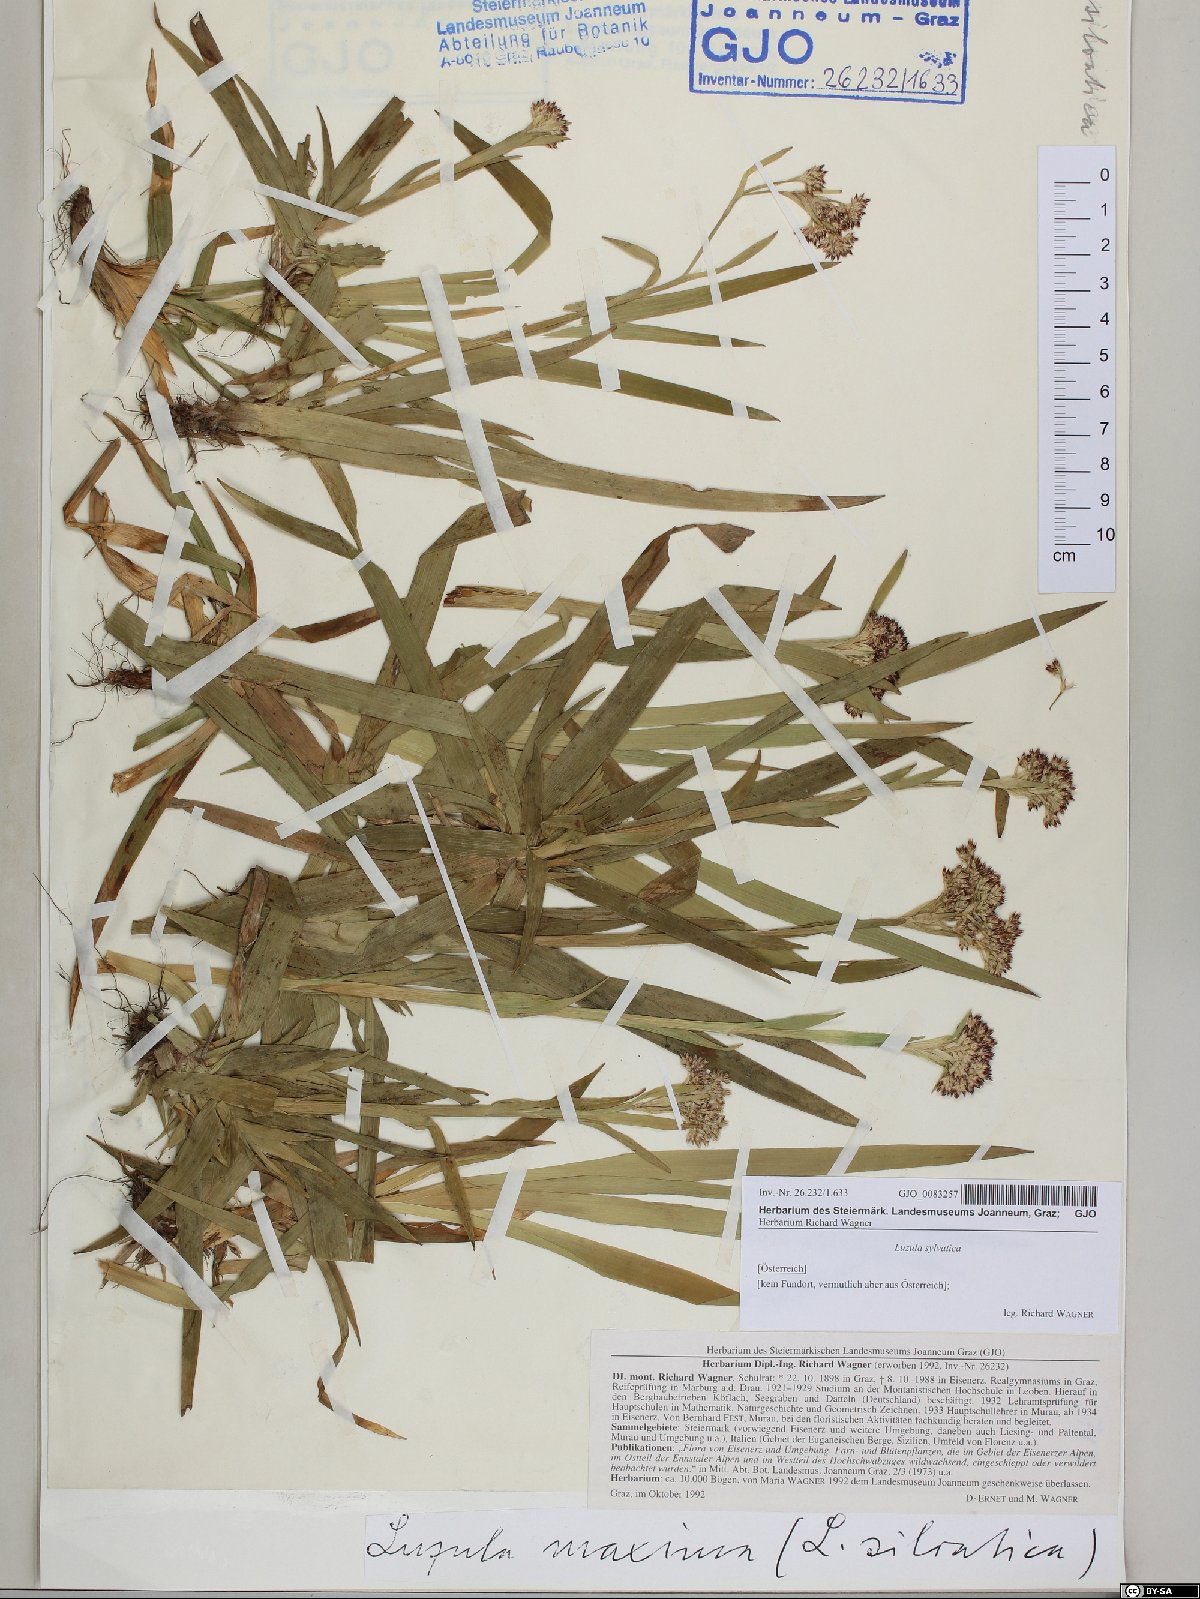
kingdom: Plantae
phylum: Tracheophyta
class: Liliopsida
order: Poales
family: Juncaceae
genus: Luzula
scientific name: Luzula sylvatica
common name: Great wood-rush
